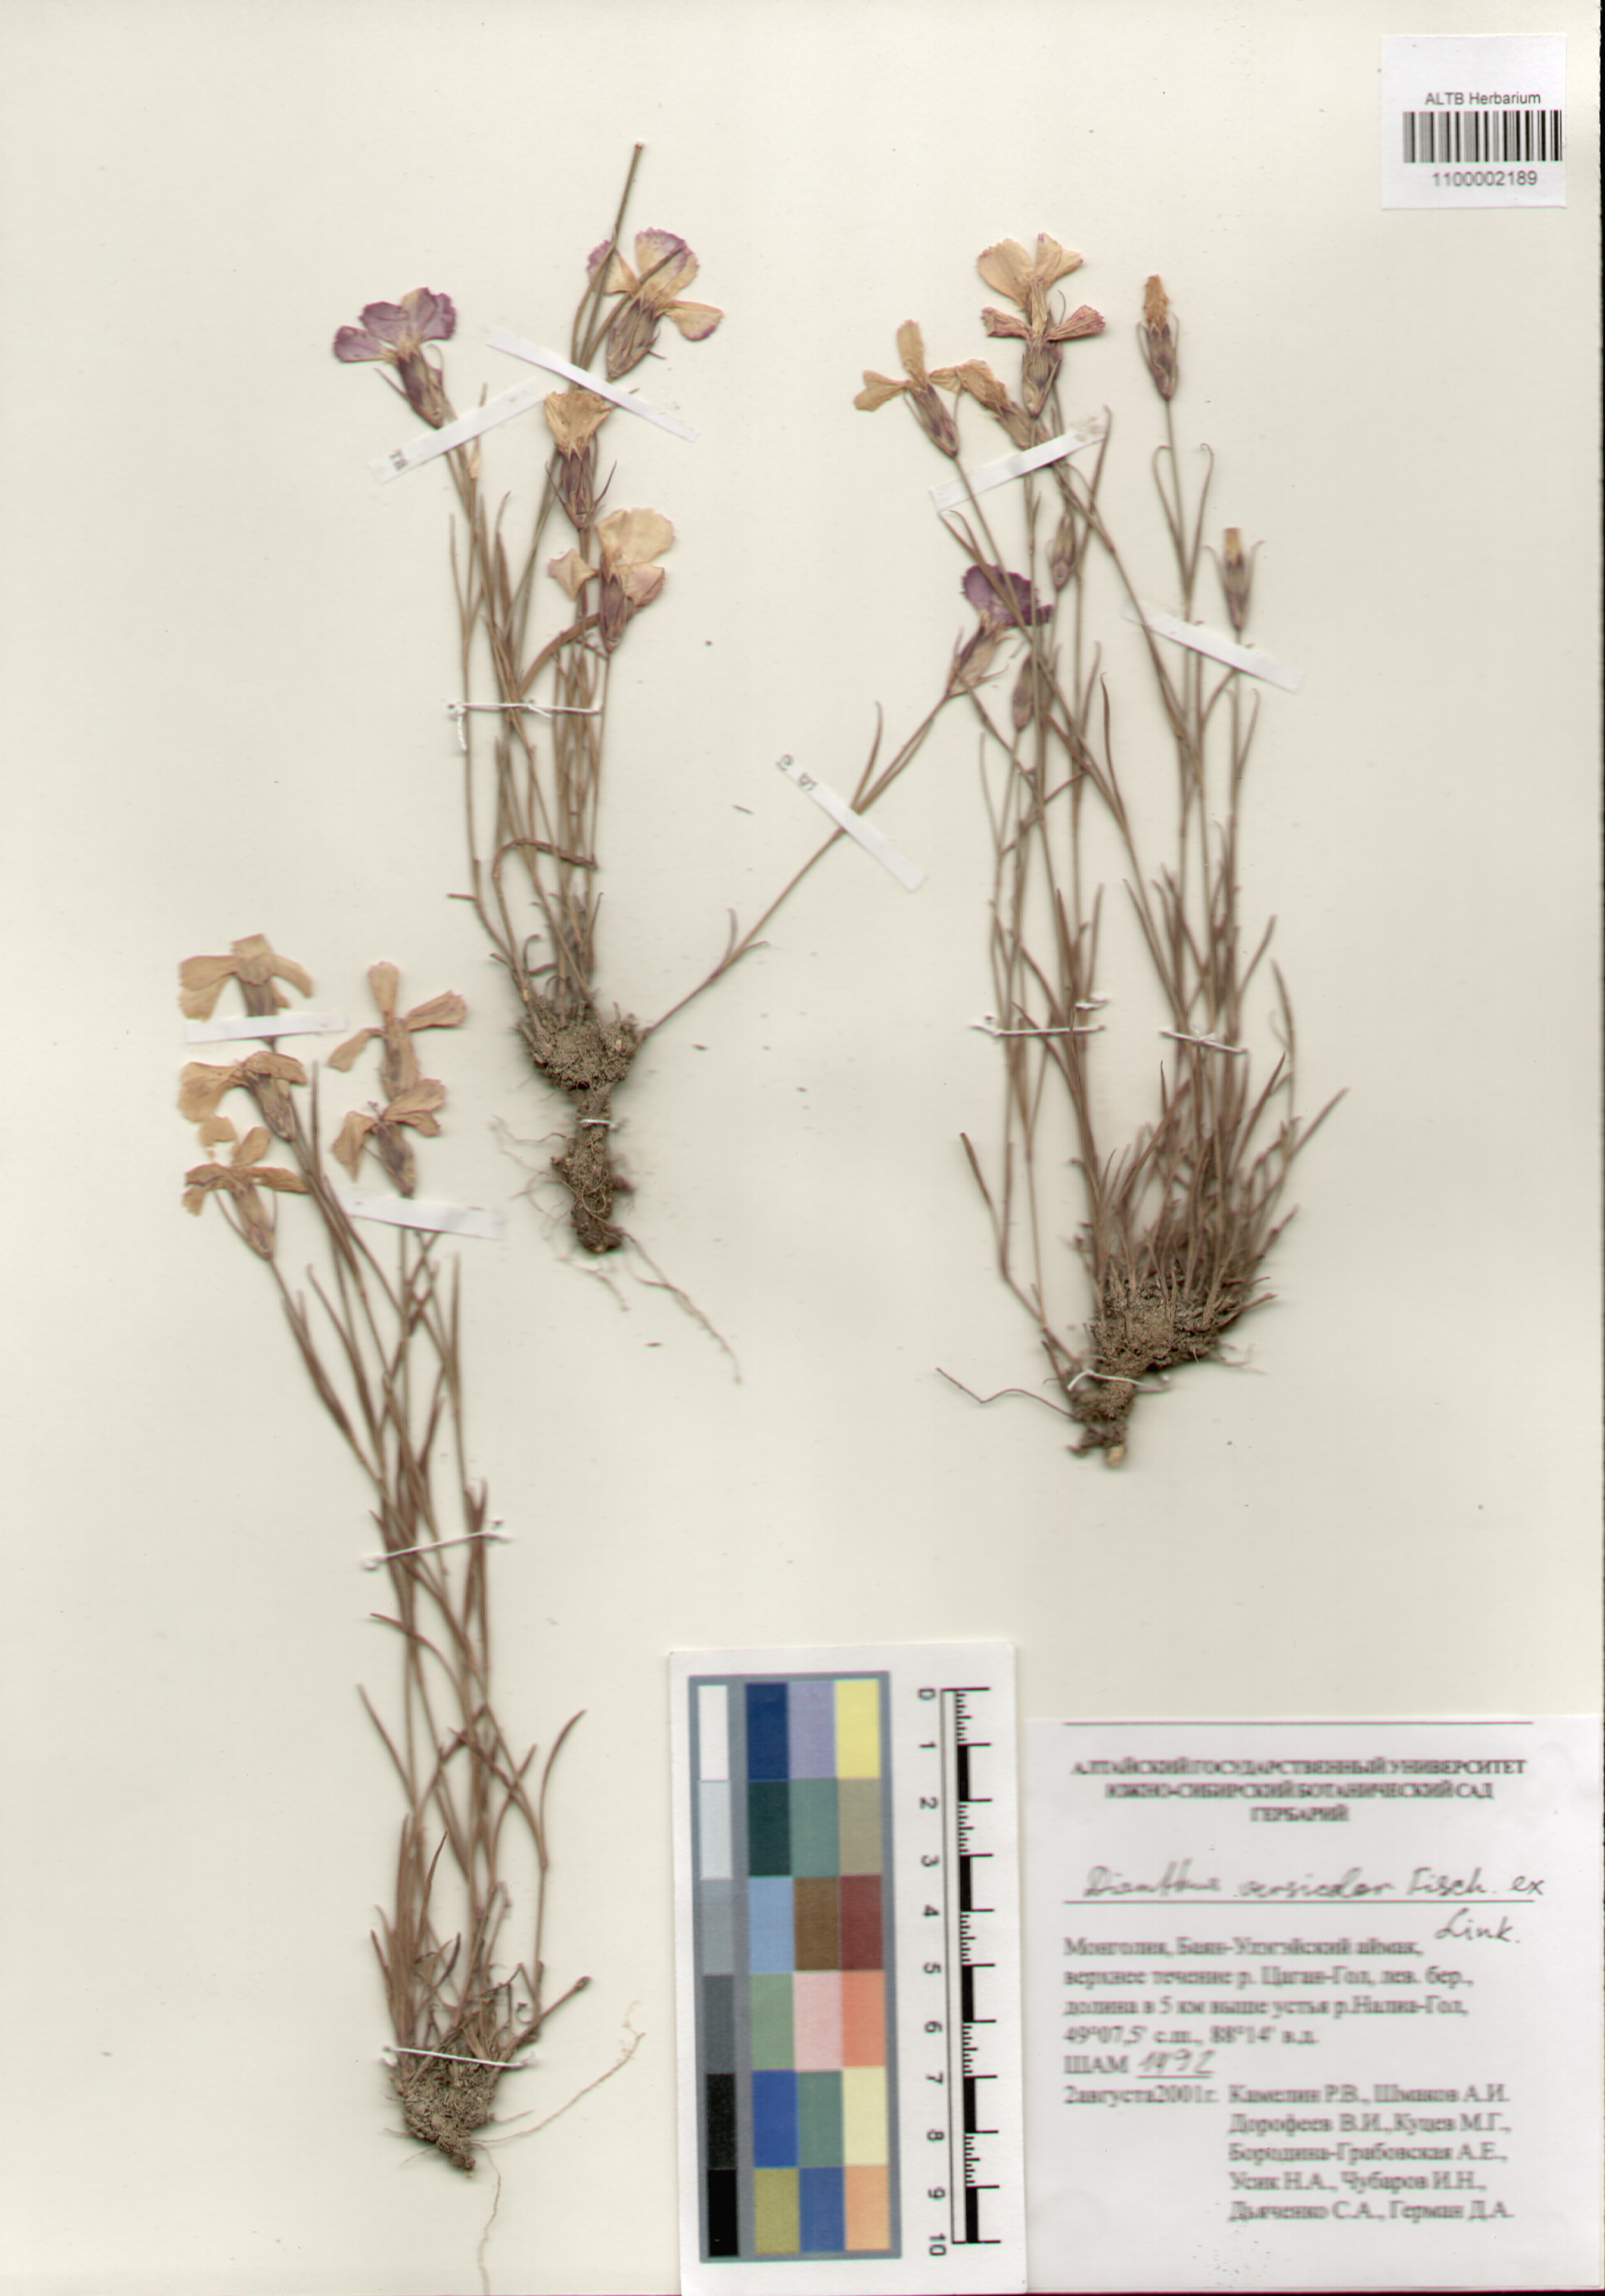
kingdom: Plantae
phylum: Tracheophyta
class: Magnoliopsida
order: Caryophyllales
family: Caryophyllaceae
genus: Dianthus
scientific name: Dianthus chinensis
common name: Rainbow pink
